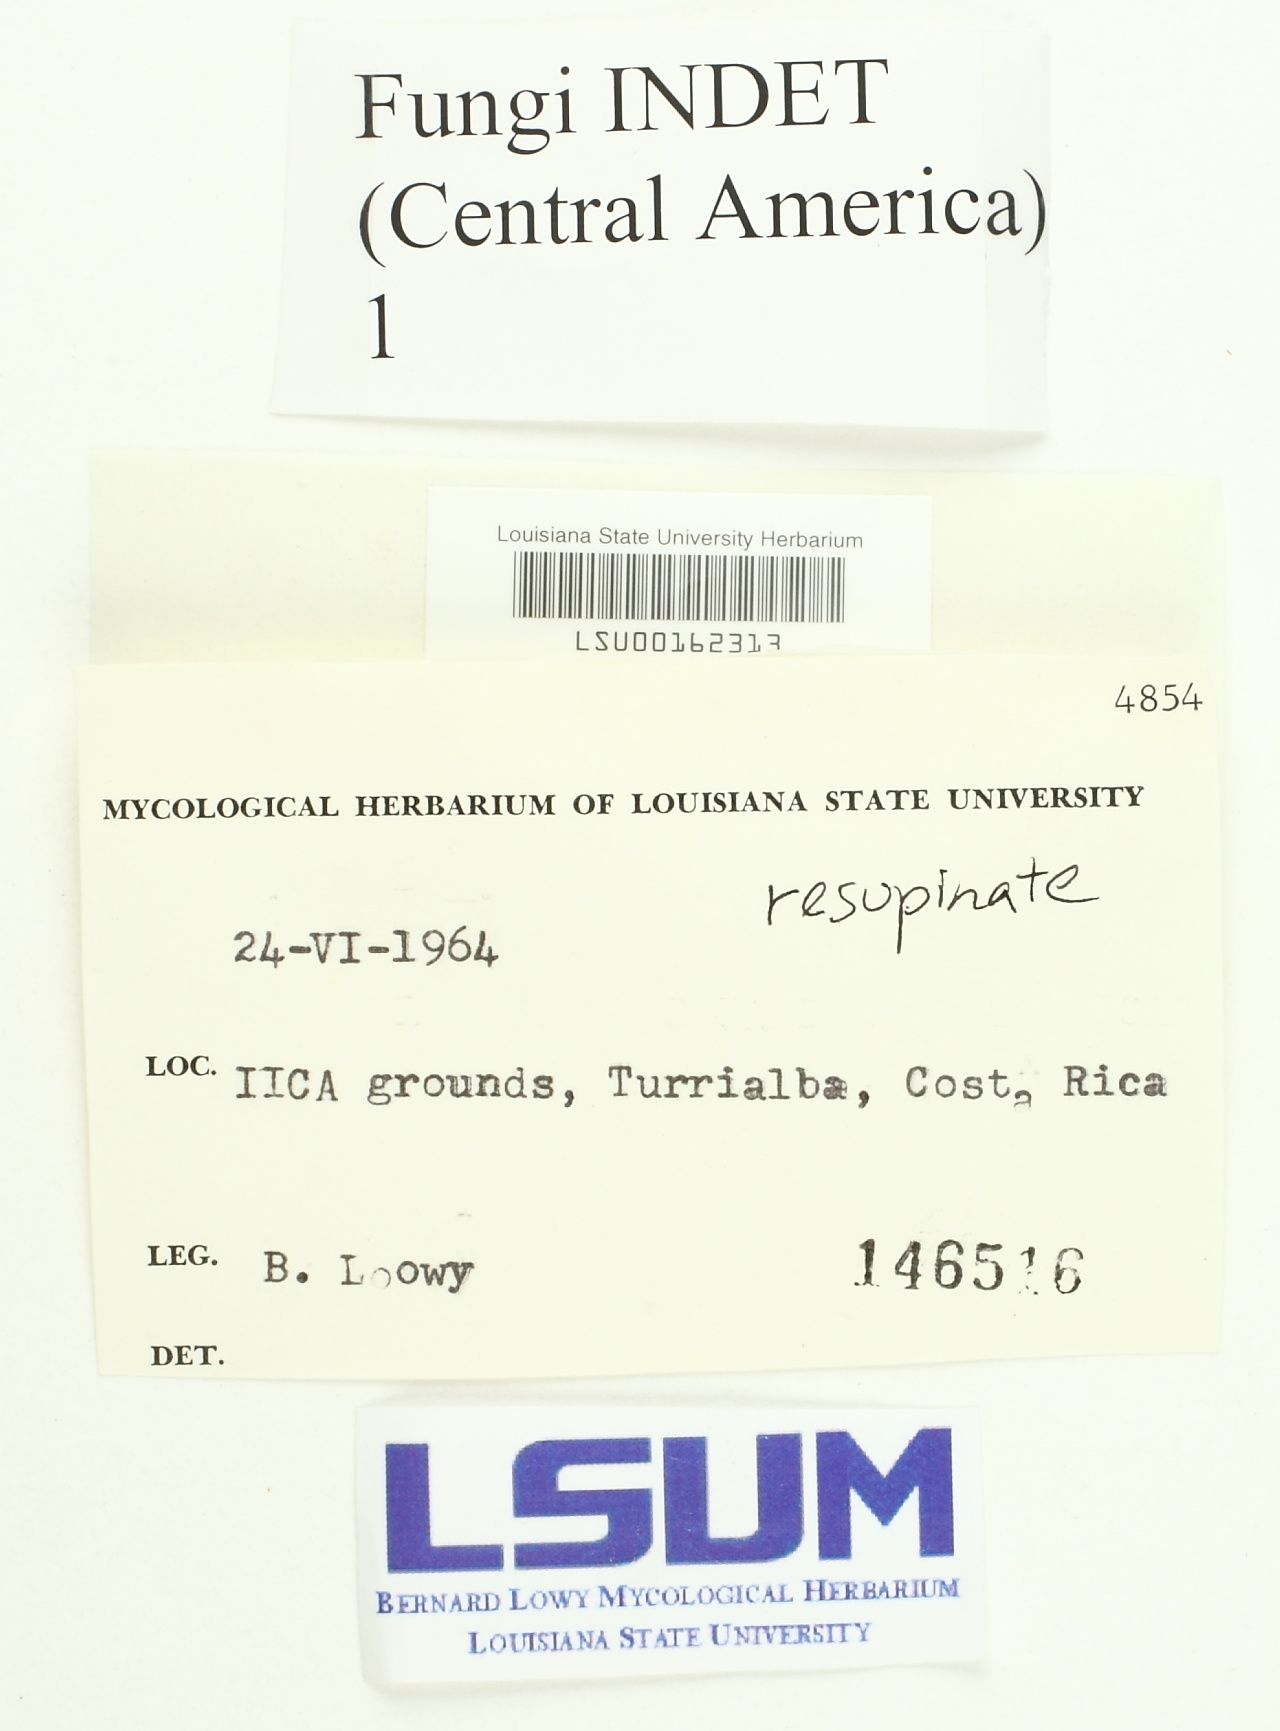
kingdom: Fungi
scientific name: Fungi
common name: Fungi
